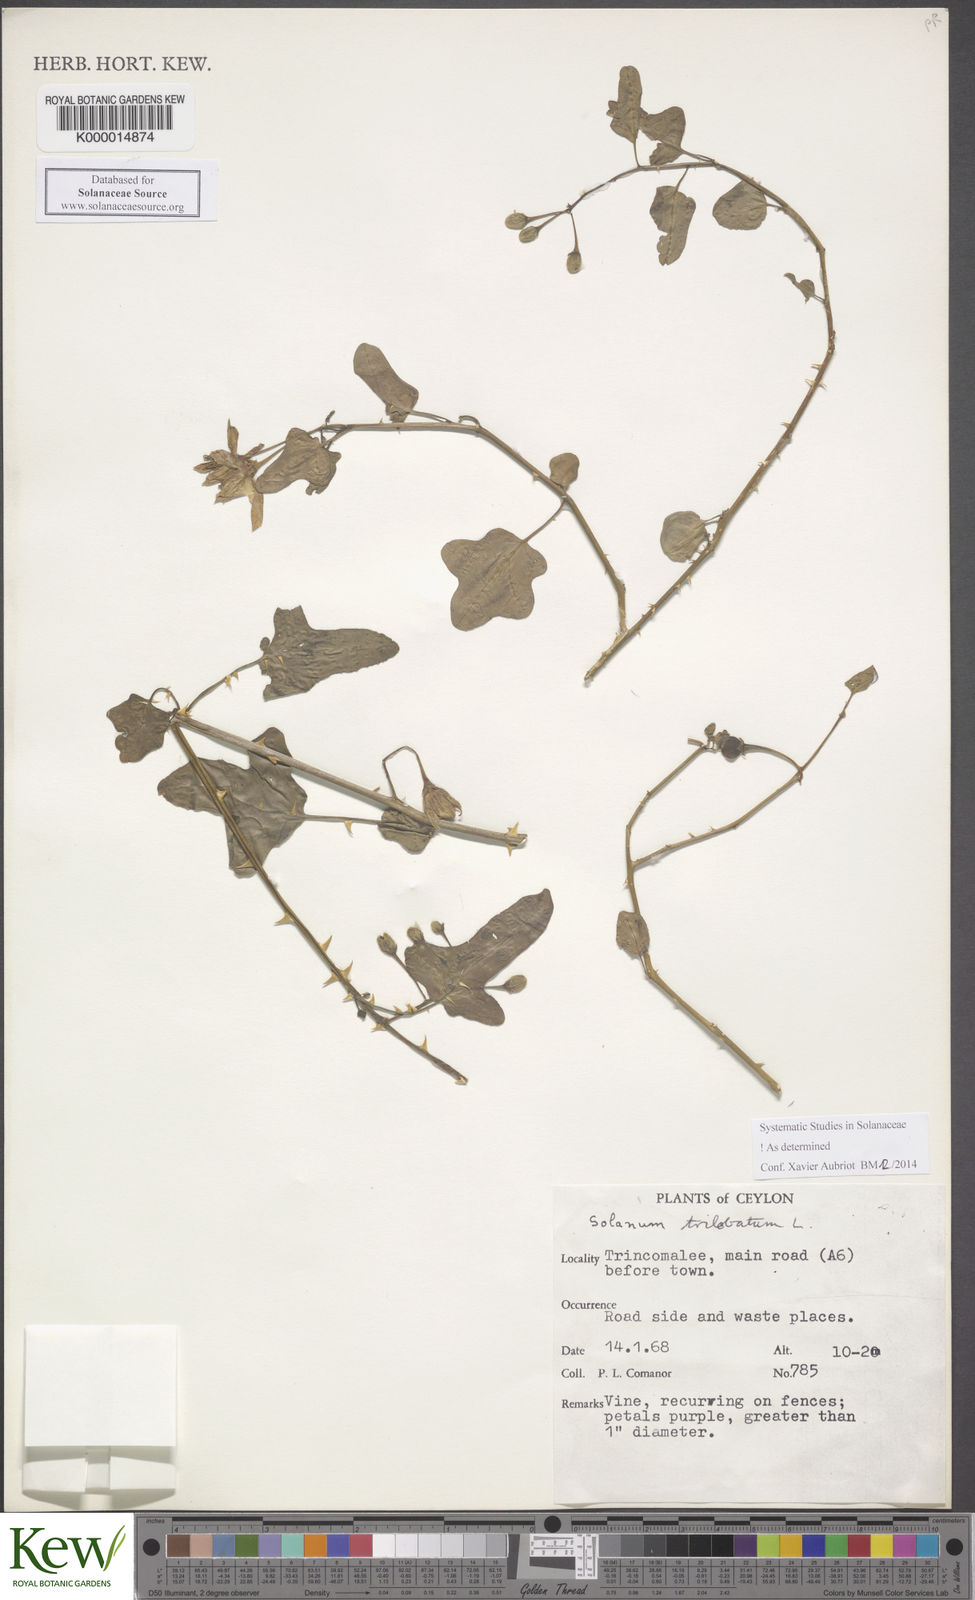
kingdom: Plantae
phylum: Tracheophyta
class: Magnoliopsida
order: Solanales
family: Solanaceae
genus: Solanum
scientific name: Solanum trilobatum
